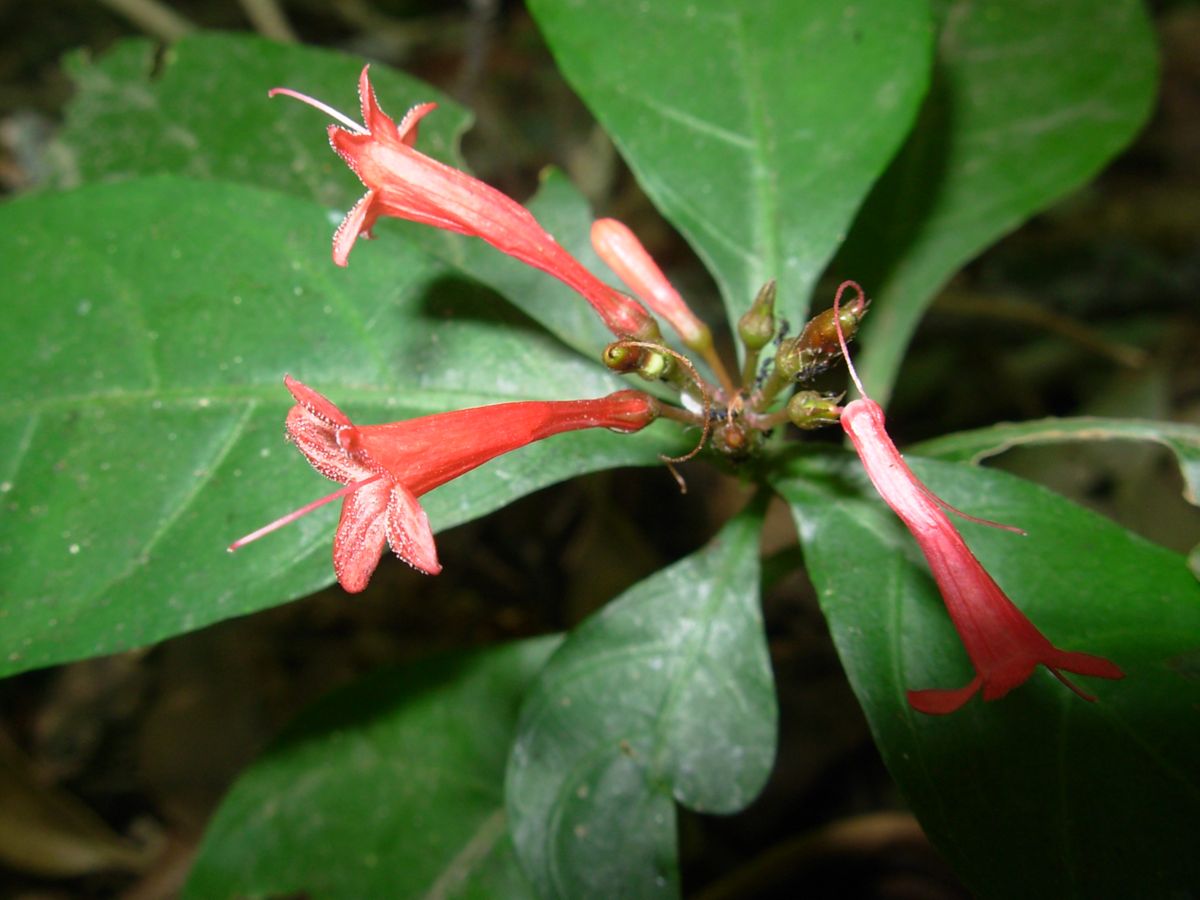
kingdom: Plantae
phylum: Tracheophyta
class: Magnoliopsida
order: Lamiales
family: Acanthaceae
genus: Odontonema
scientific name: Odontonema tubaeforme
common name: Firespike
